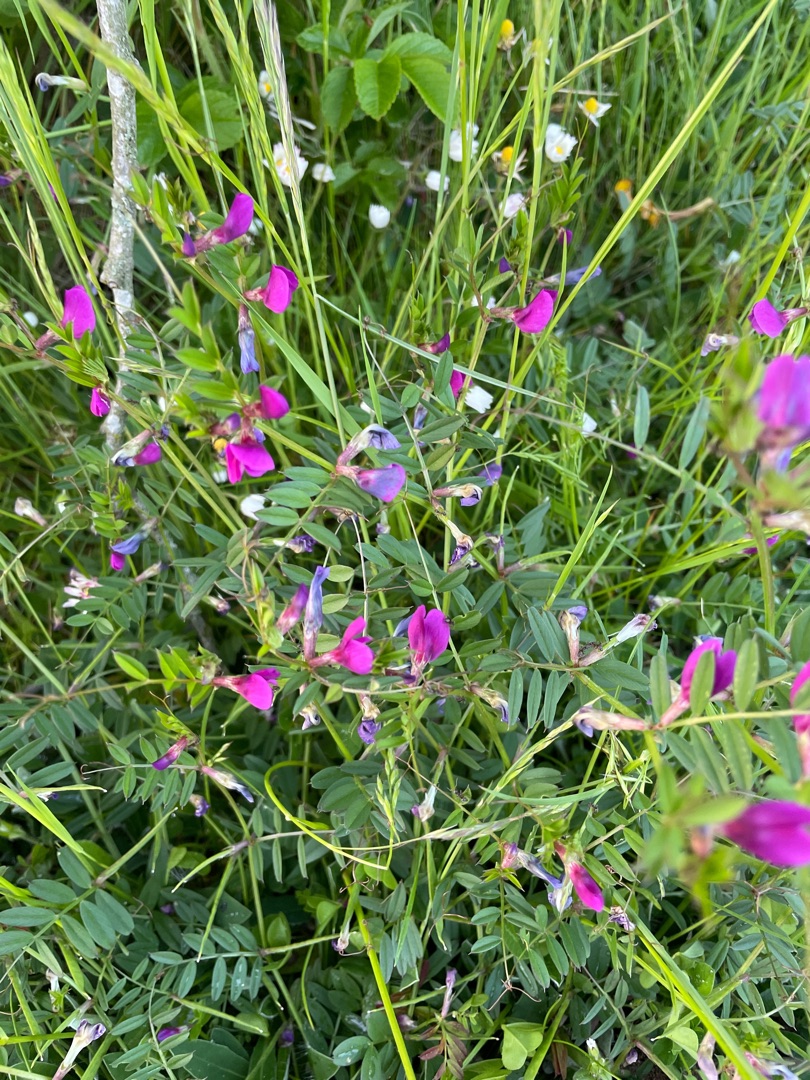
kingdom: Plantae
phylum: Tracheophyta
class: Magnoliopsida
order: Fabales
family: Fabaceae
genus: Vicia
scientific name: Vicia sativa
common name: Ager-vikke
